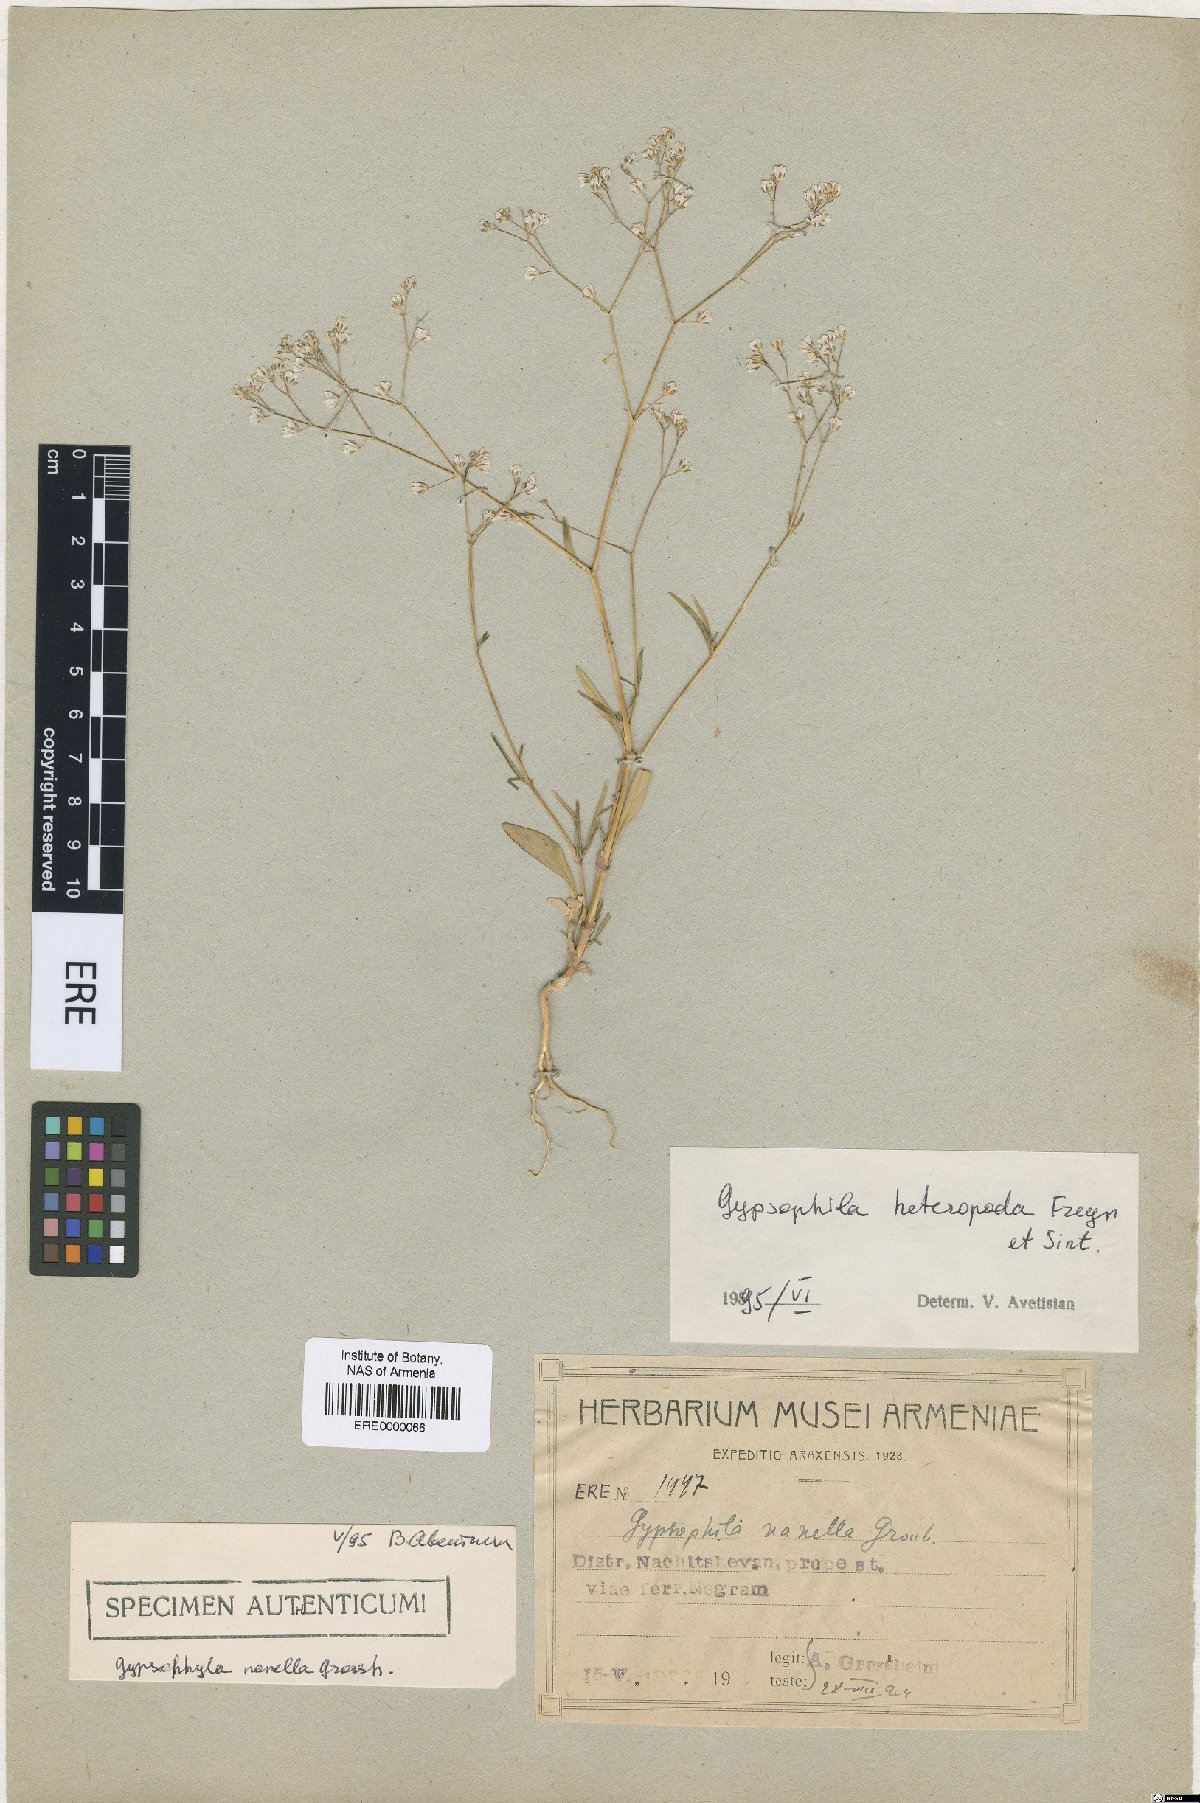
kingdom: Plantae
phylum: Tracheophyta
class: Magnoliopsida
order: Caryophyllales
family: Caryophyllaceae
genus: Gypsophila
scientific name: Gypsophila heteropoda
